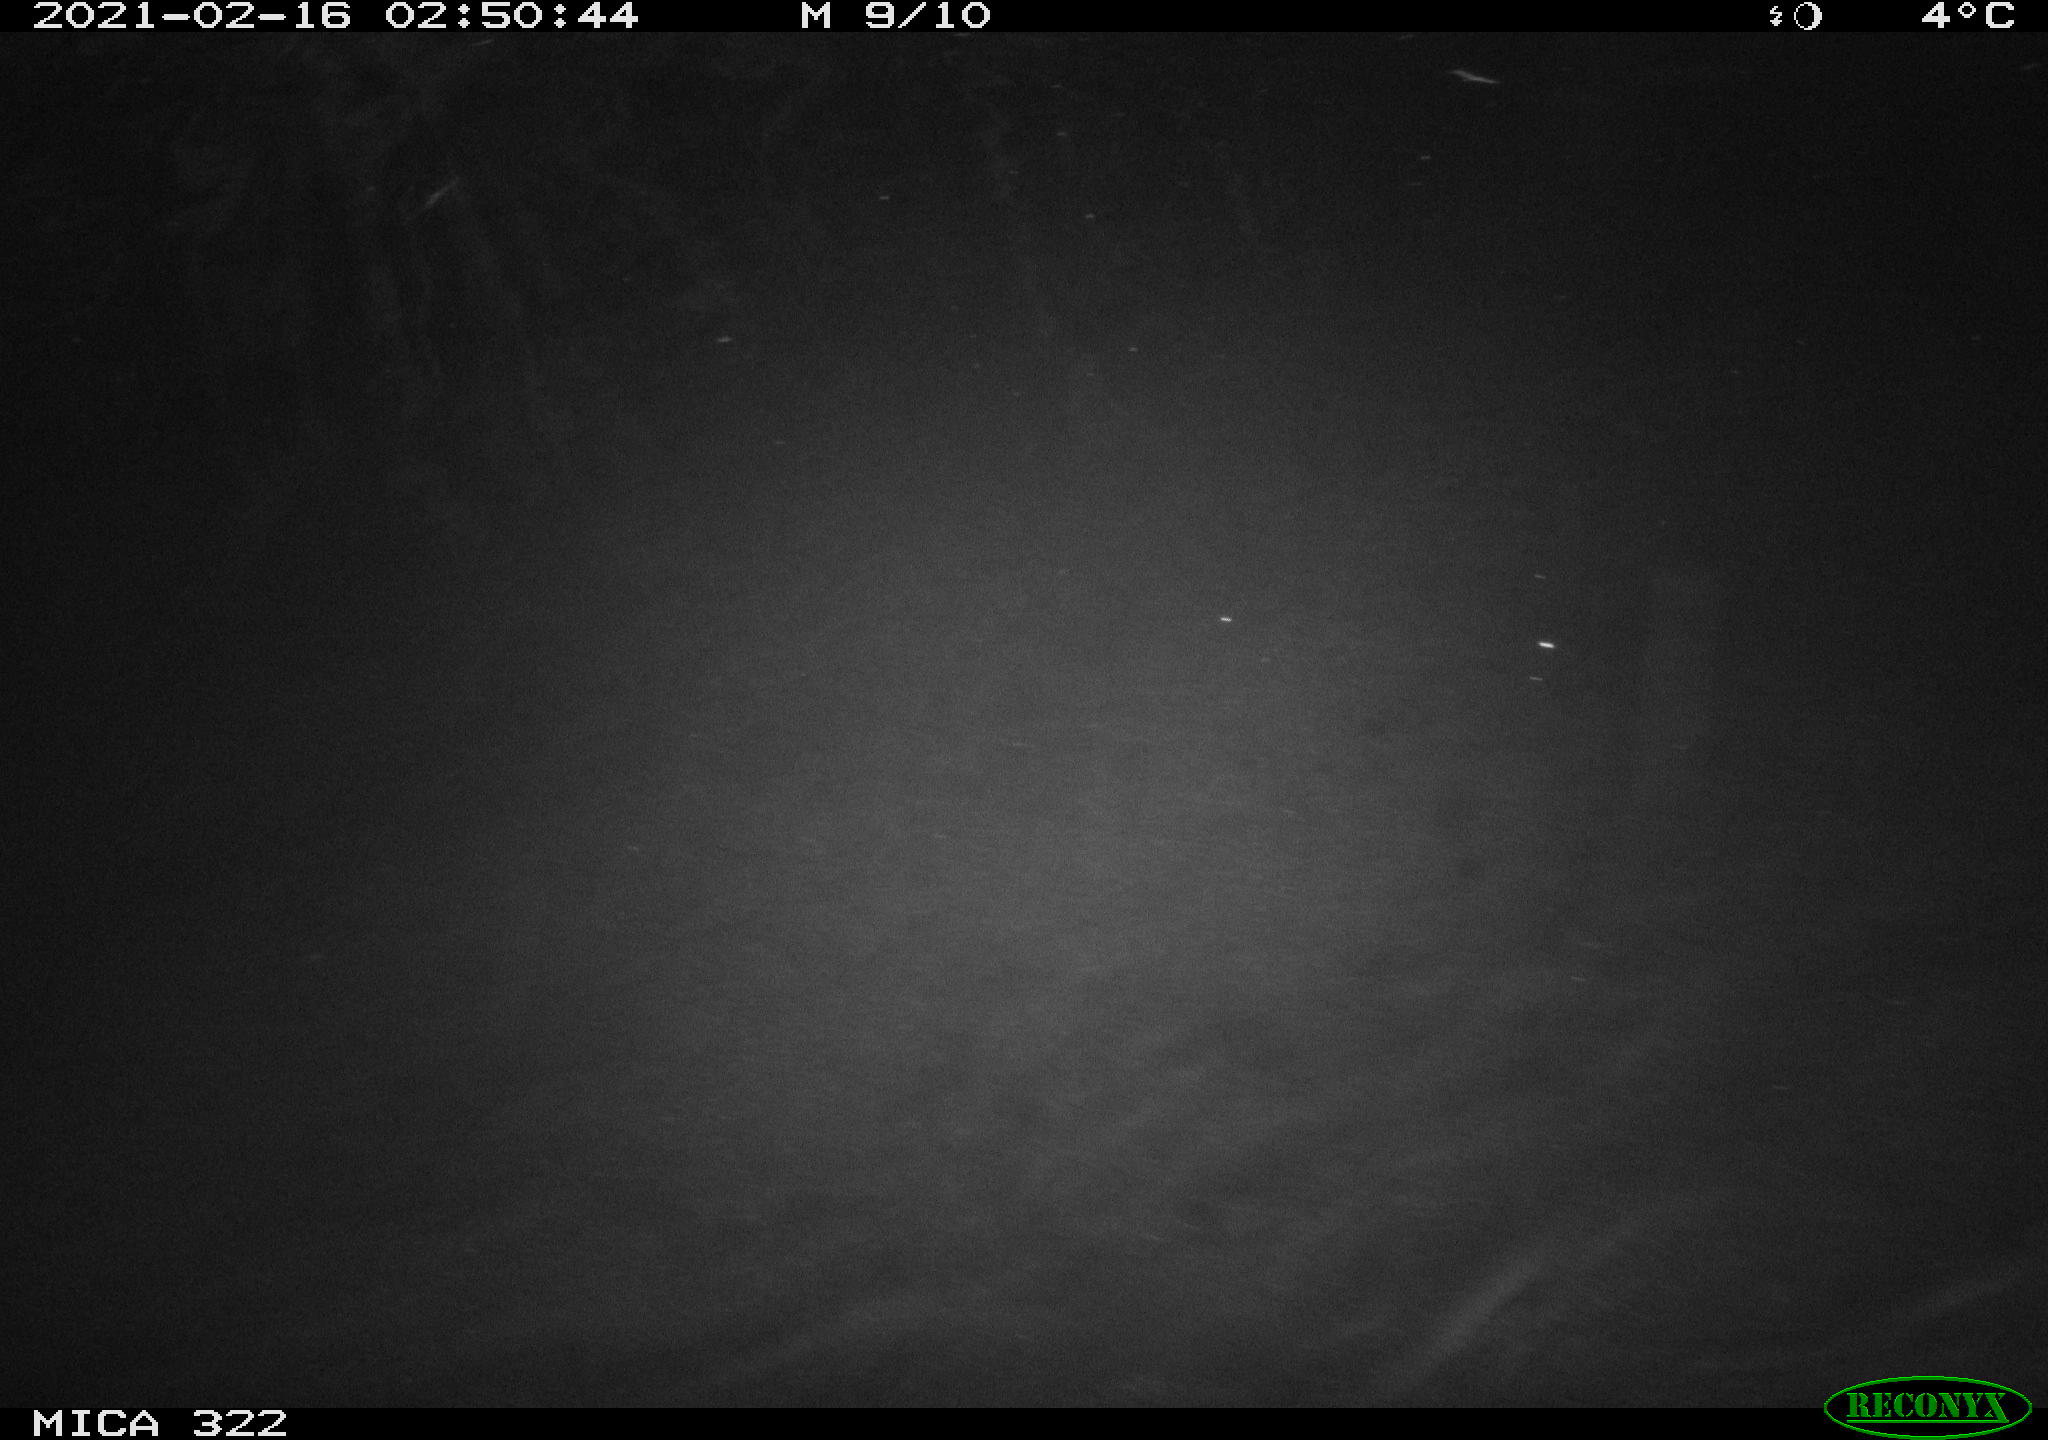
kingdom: Animalia
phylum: Chordata
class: Aves
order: Anseriformes
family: Anatidae
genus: Anas
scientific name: Anas platyrhynchos
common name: Mallard
